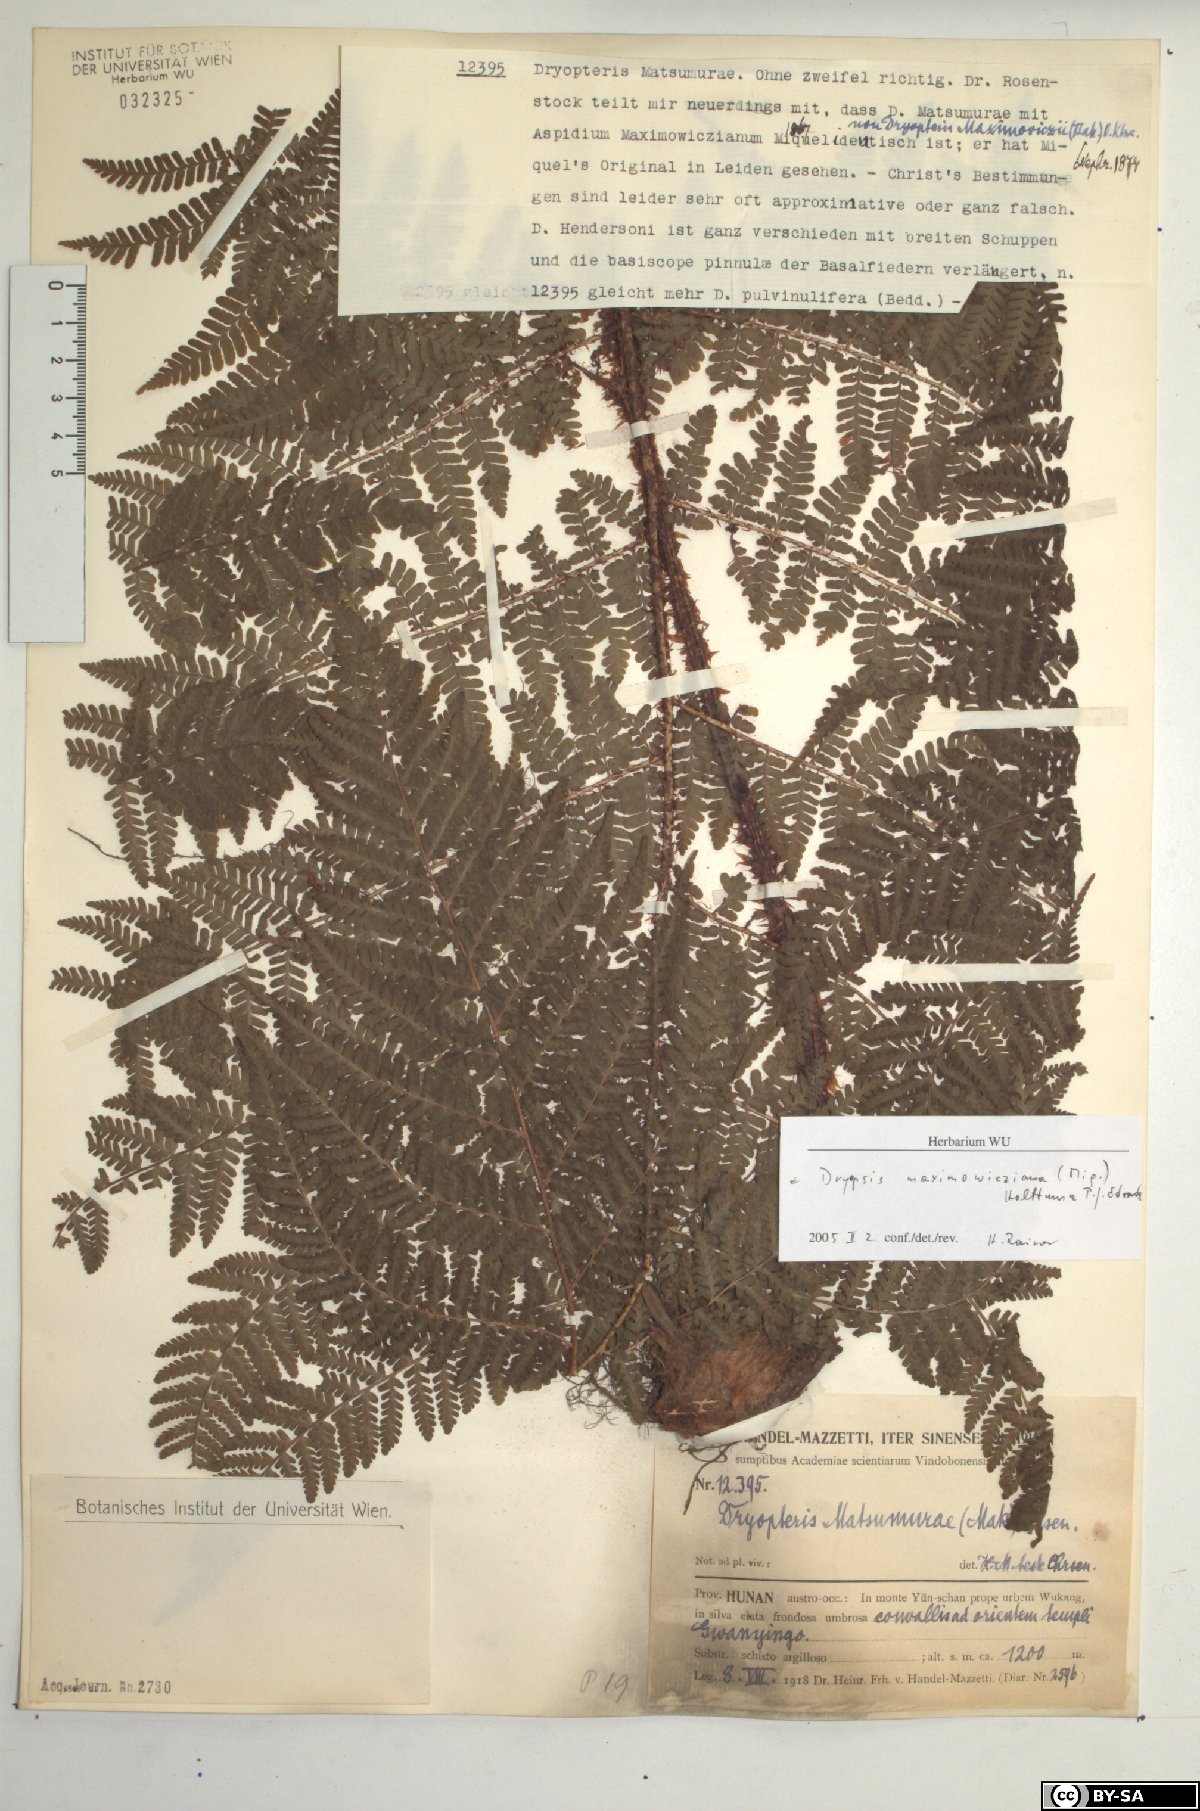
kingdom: Plantae
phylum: Tracheophyta
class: Polypodiopsida
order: Polypodiales
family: Dryopteridaceae
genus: Dryopteris
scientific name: Dryopteris maximowicziana
